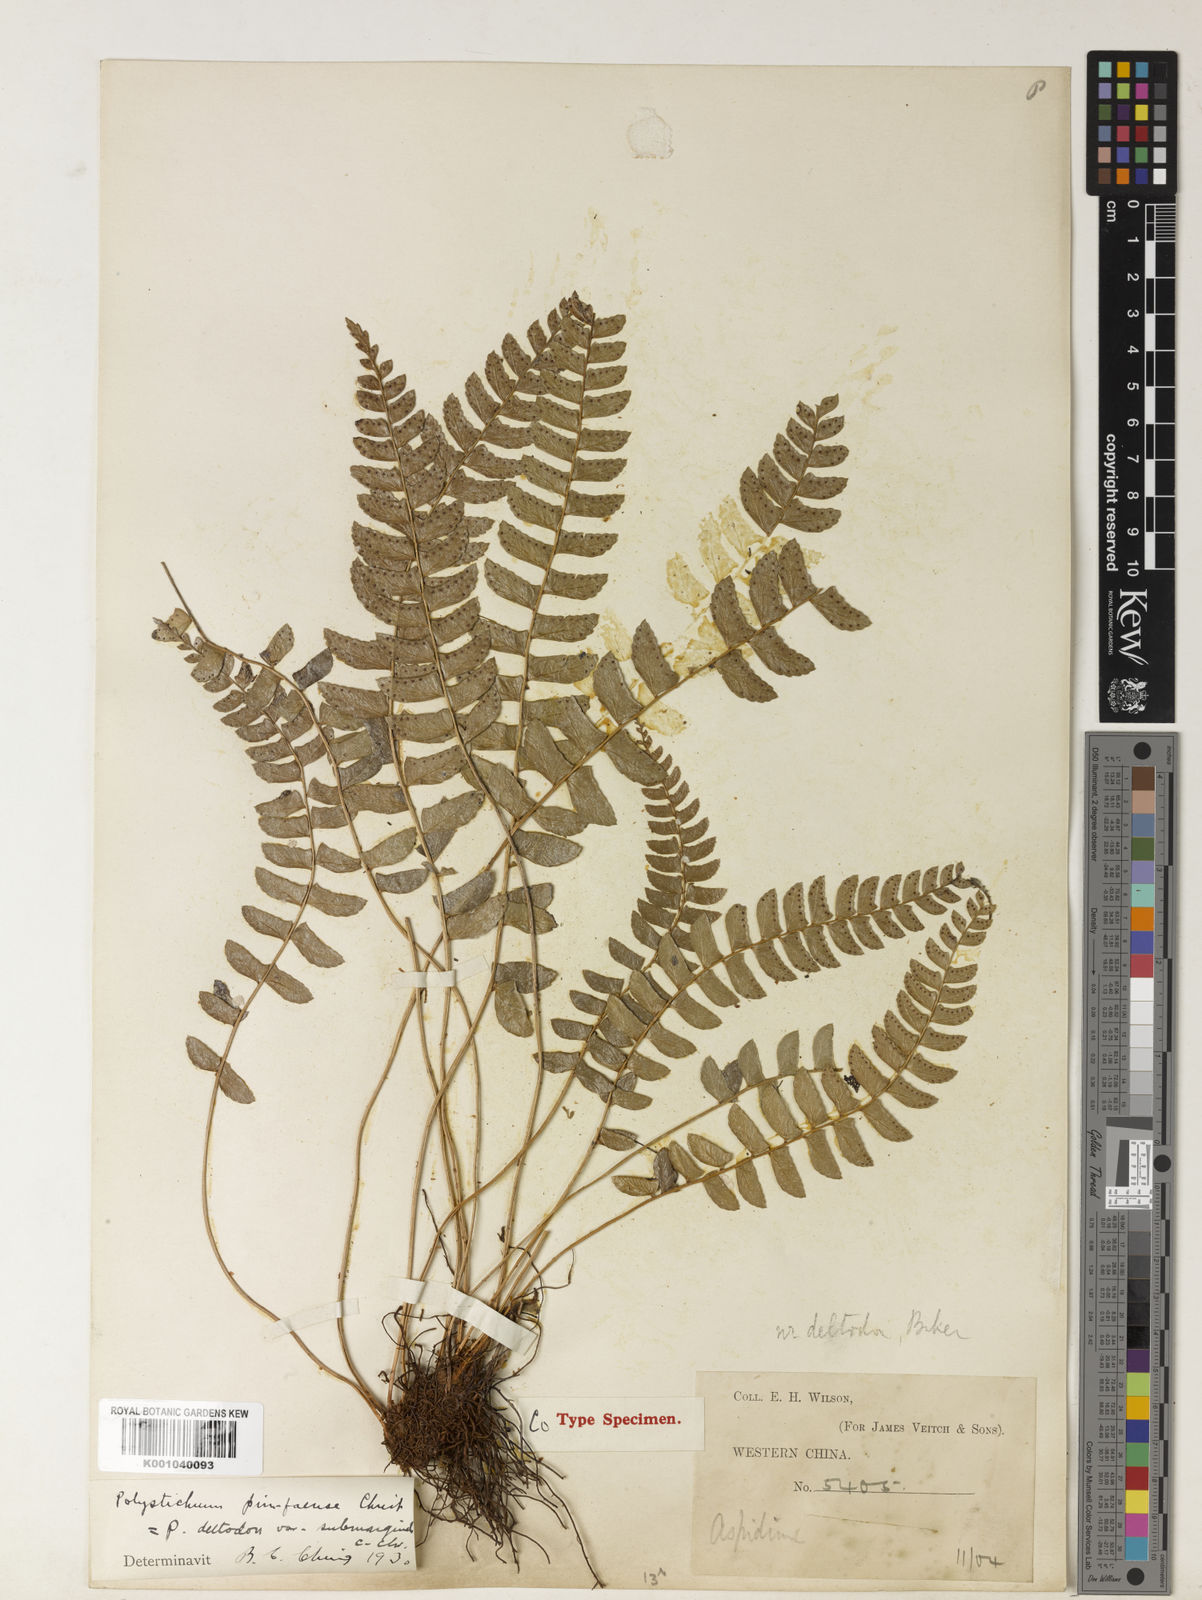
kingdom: Plantae
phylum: Tracheophyta
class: Polypodiopsida
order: Polypodiales
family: Dryopteridaceae
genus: Polystichum
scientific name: Polystichum dielsii
